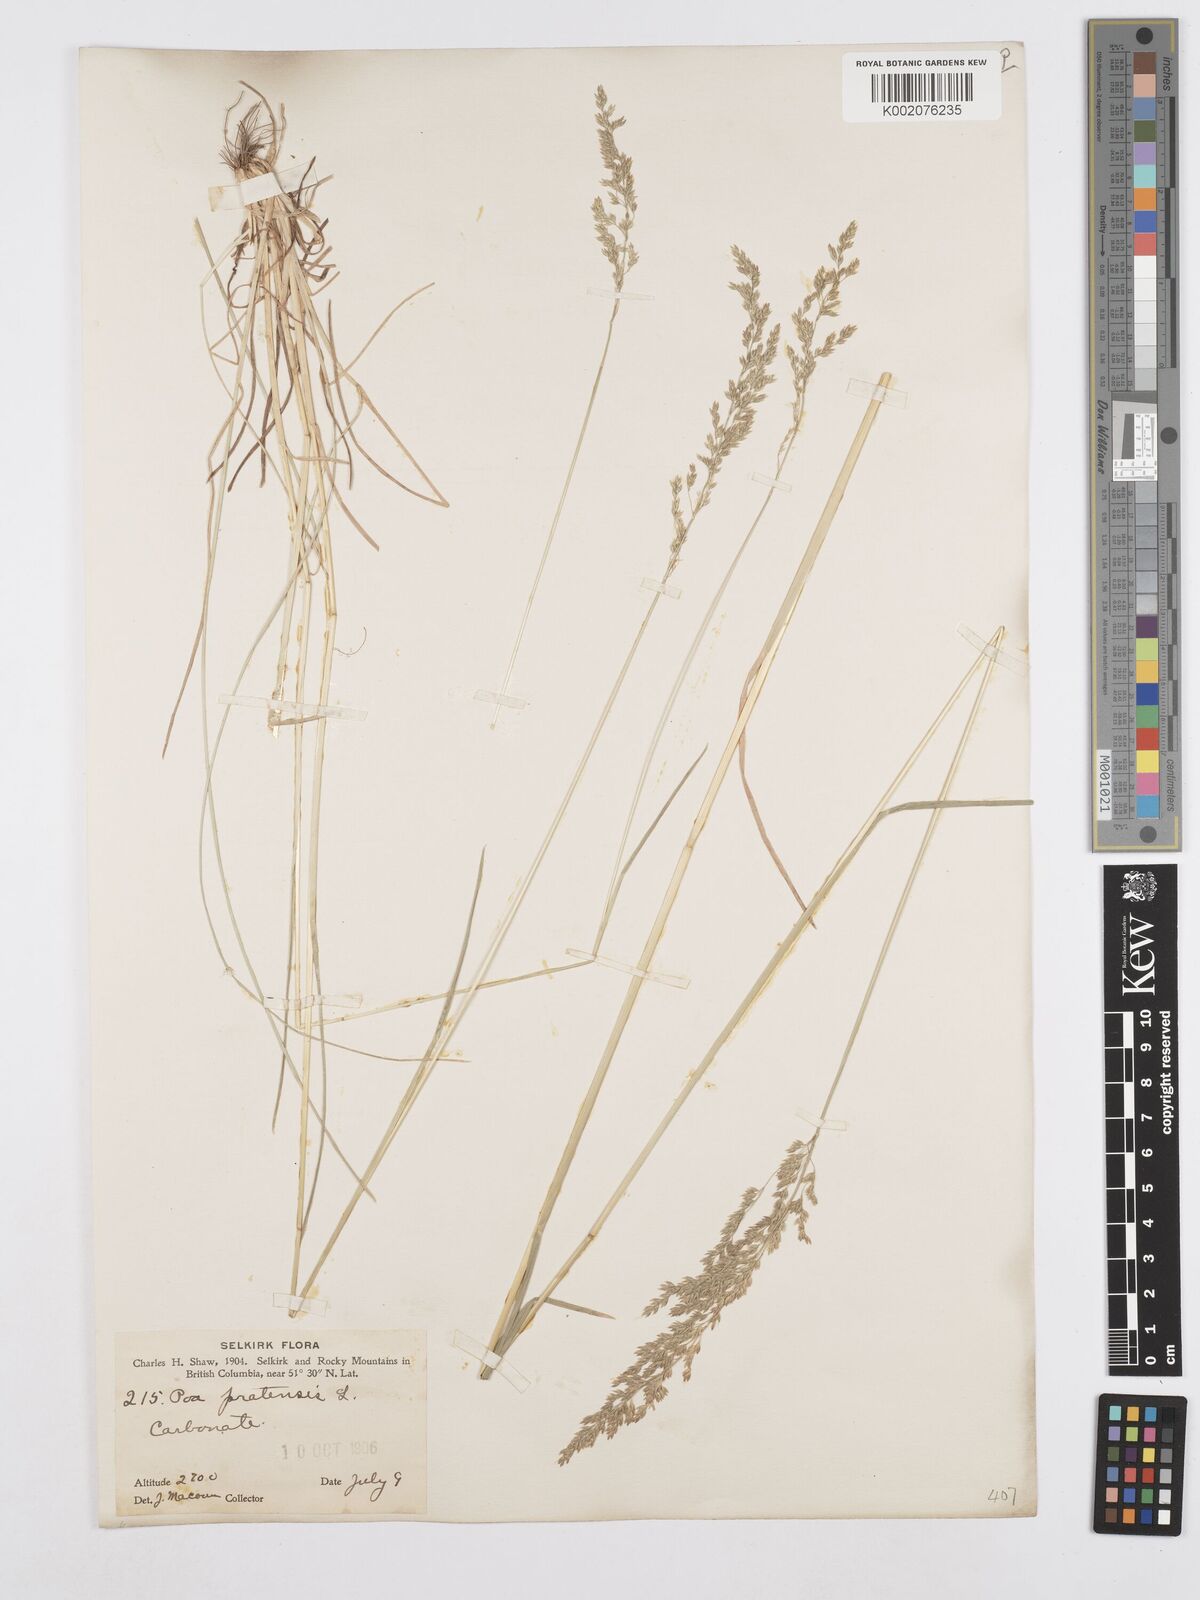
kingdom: Plantae
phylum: Tracheophyta
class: Liliopsida
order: Poales
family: Poaceae
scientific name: Poaceae
